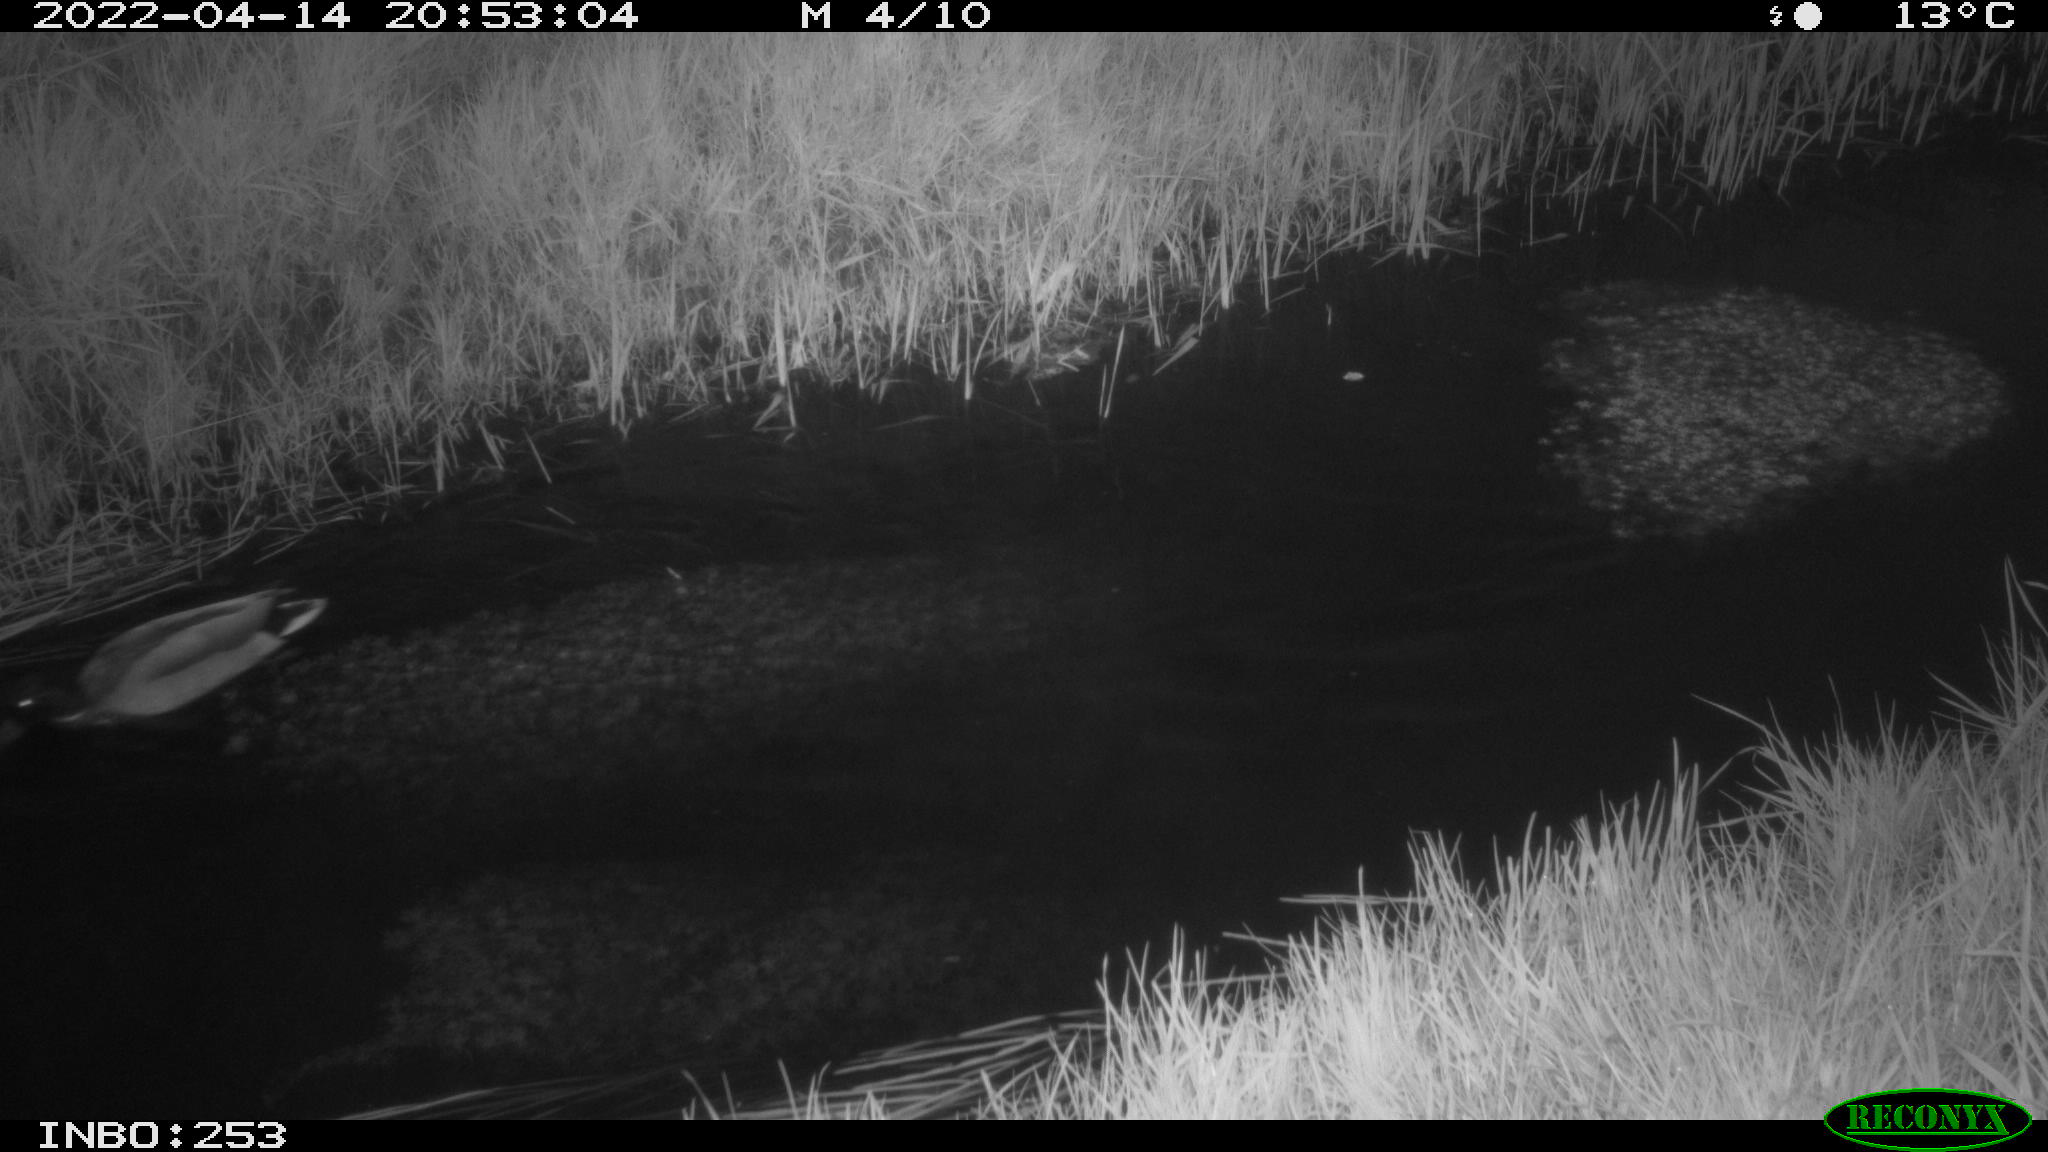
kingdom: Animalia
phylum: Chordata
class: Aves
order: Anseriformes
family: Anatidae
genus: Anas
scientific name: Anas platyrhynchos
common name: Mallard
